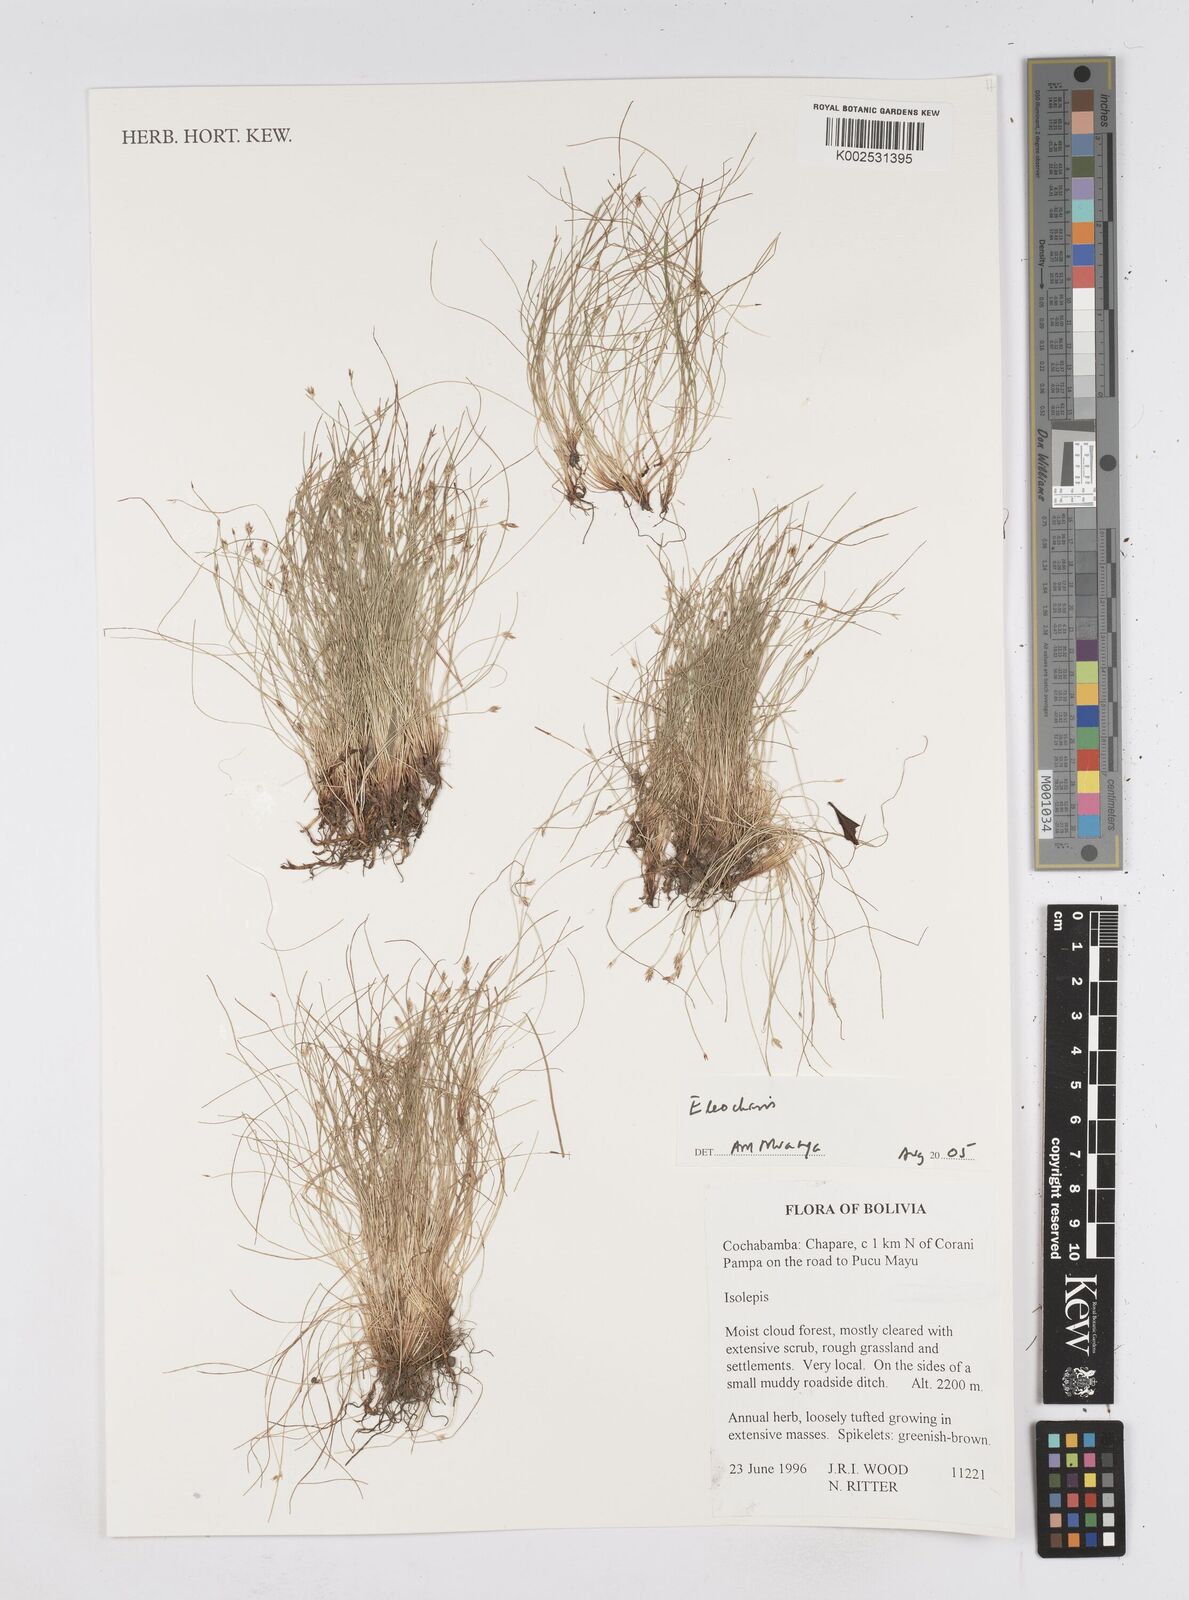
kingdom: Plantae
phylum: Tracheophyta
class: Liliopsida
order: Poales
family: Cyperaceae
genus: Eleocharis
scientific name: Eleocharis
